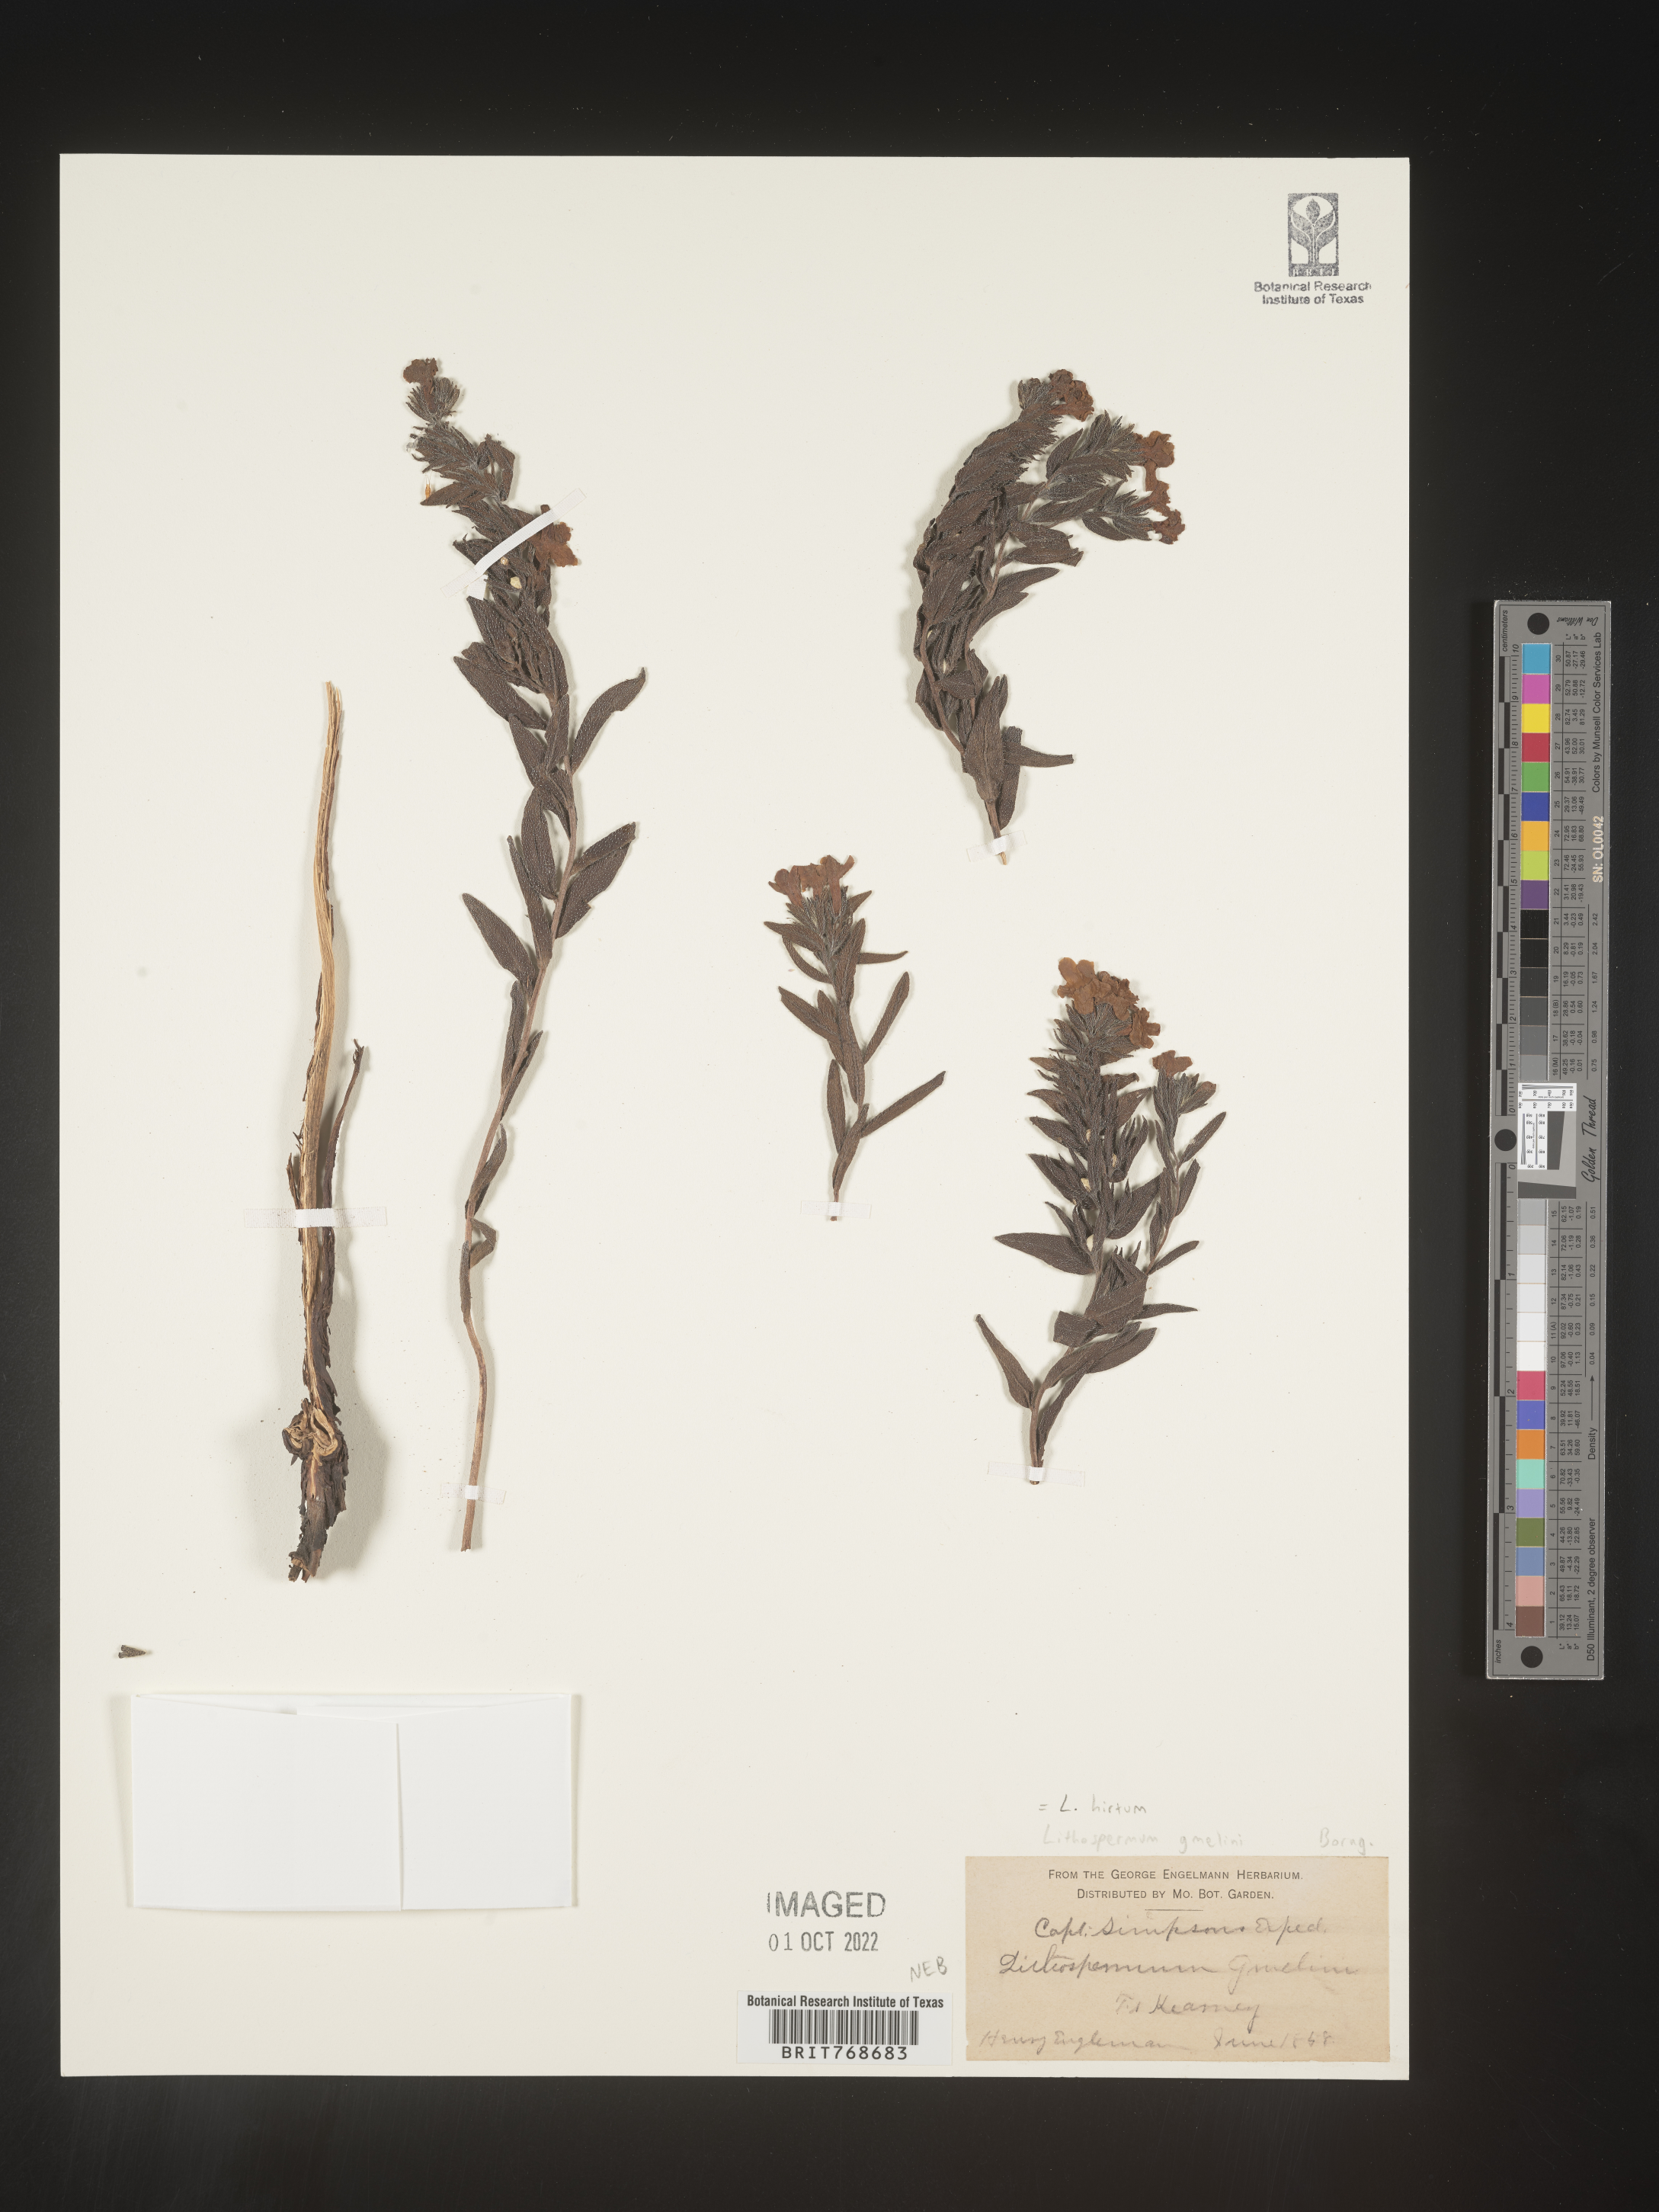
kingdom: Plantae
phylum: Tracheophyta
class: Magnoliopsida
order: Boraginales
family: Boraginaceae
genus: Lithospermum
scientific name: Lithospermum
